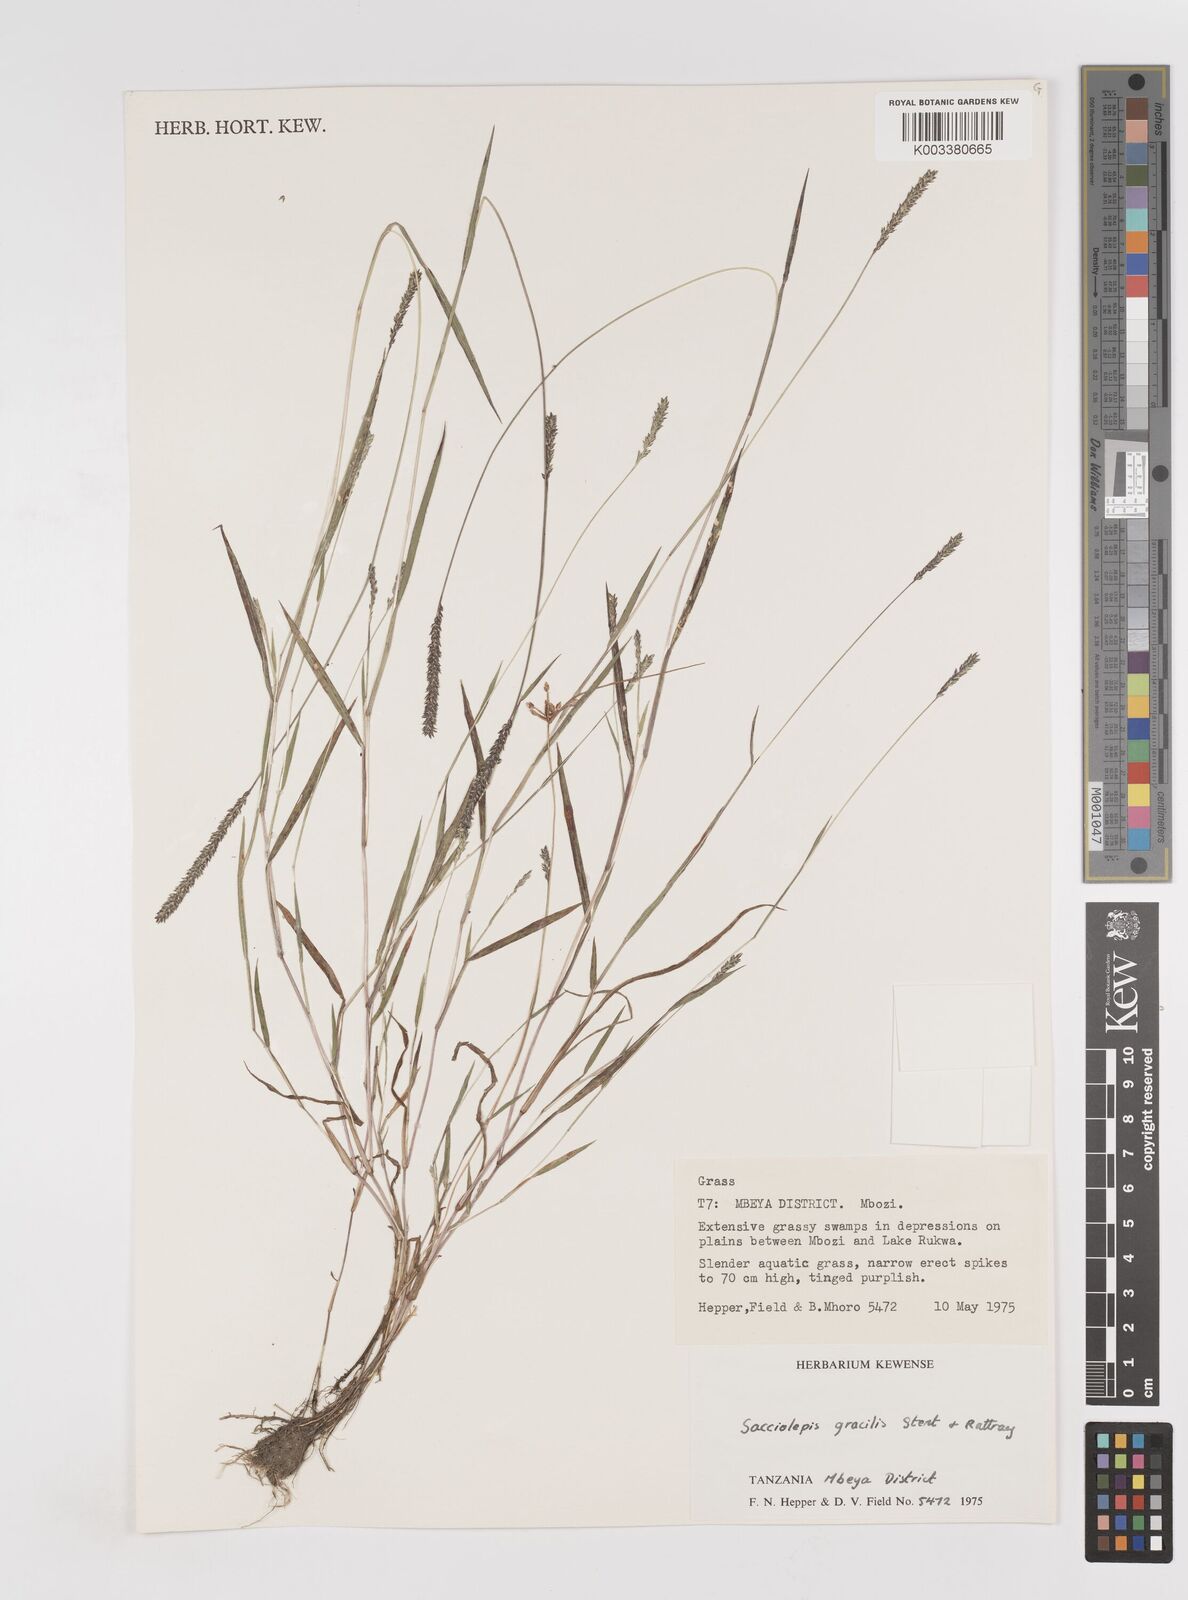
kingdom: Plantae
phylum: Tracheophyta
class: Liliopsida
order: Poales
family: Poaceae
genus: Sacciolepis
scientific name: Sacciolepis indica
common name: Glenwoodgrass
